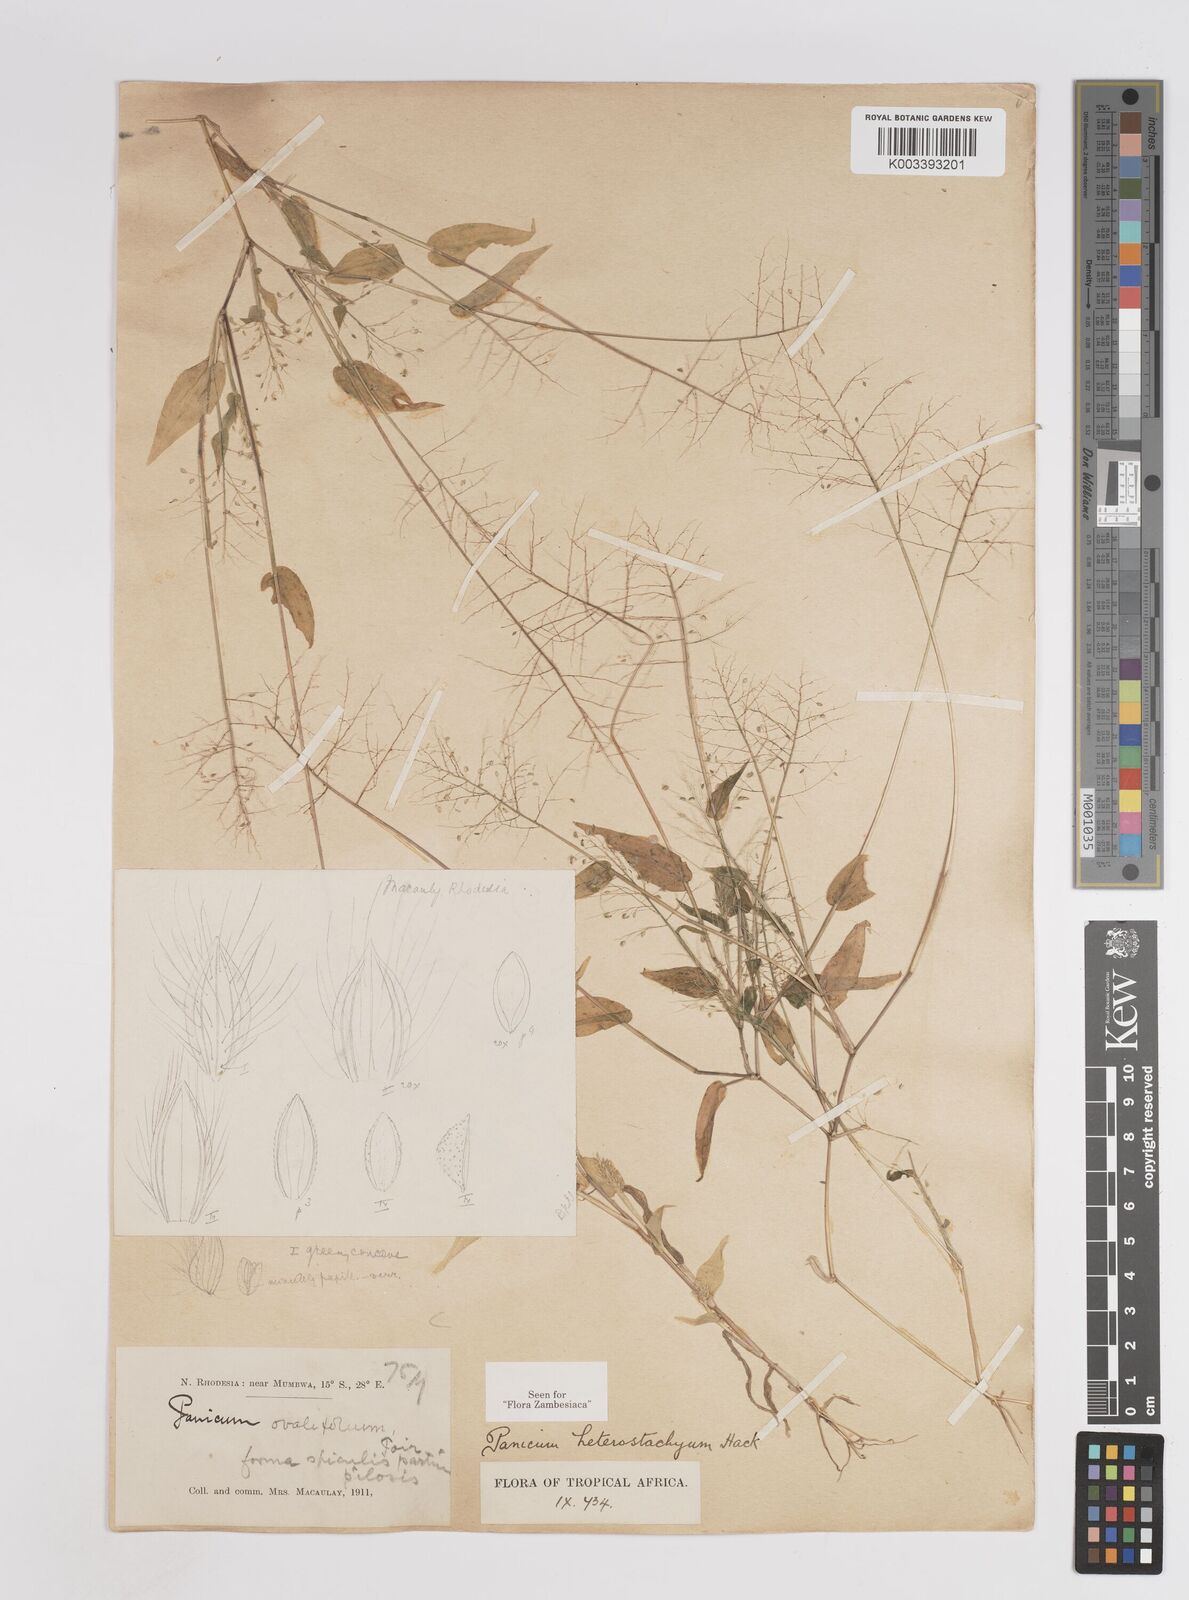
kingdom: Plantae
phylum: Tracheophyta
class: Liliopsida
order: Poales
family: Poaceae
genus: Panicum
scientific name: Panicum hirtum
